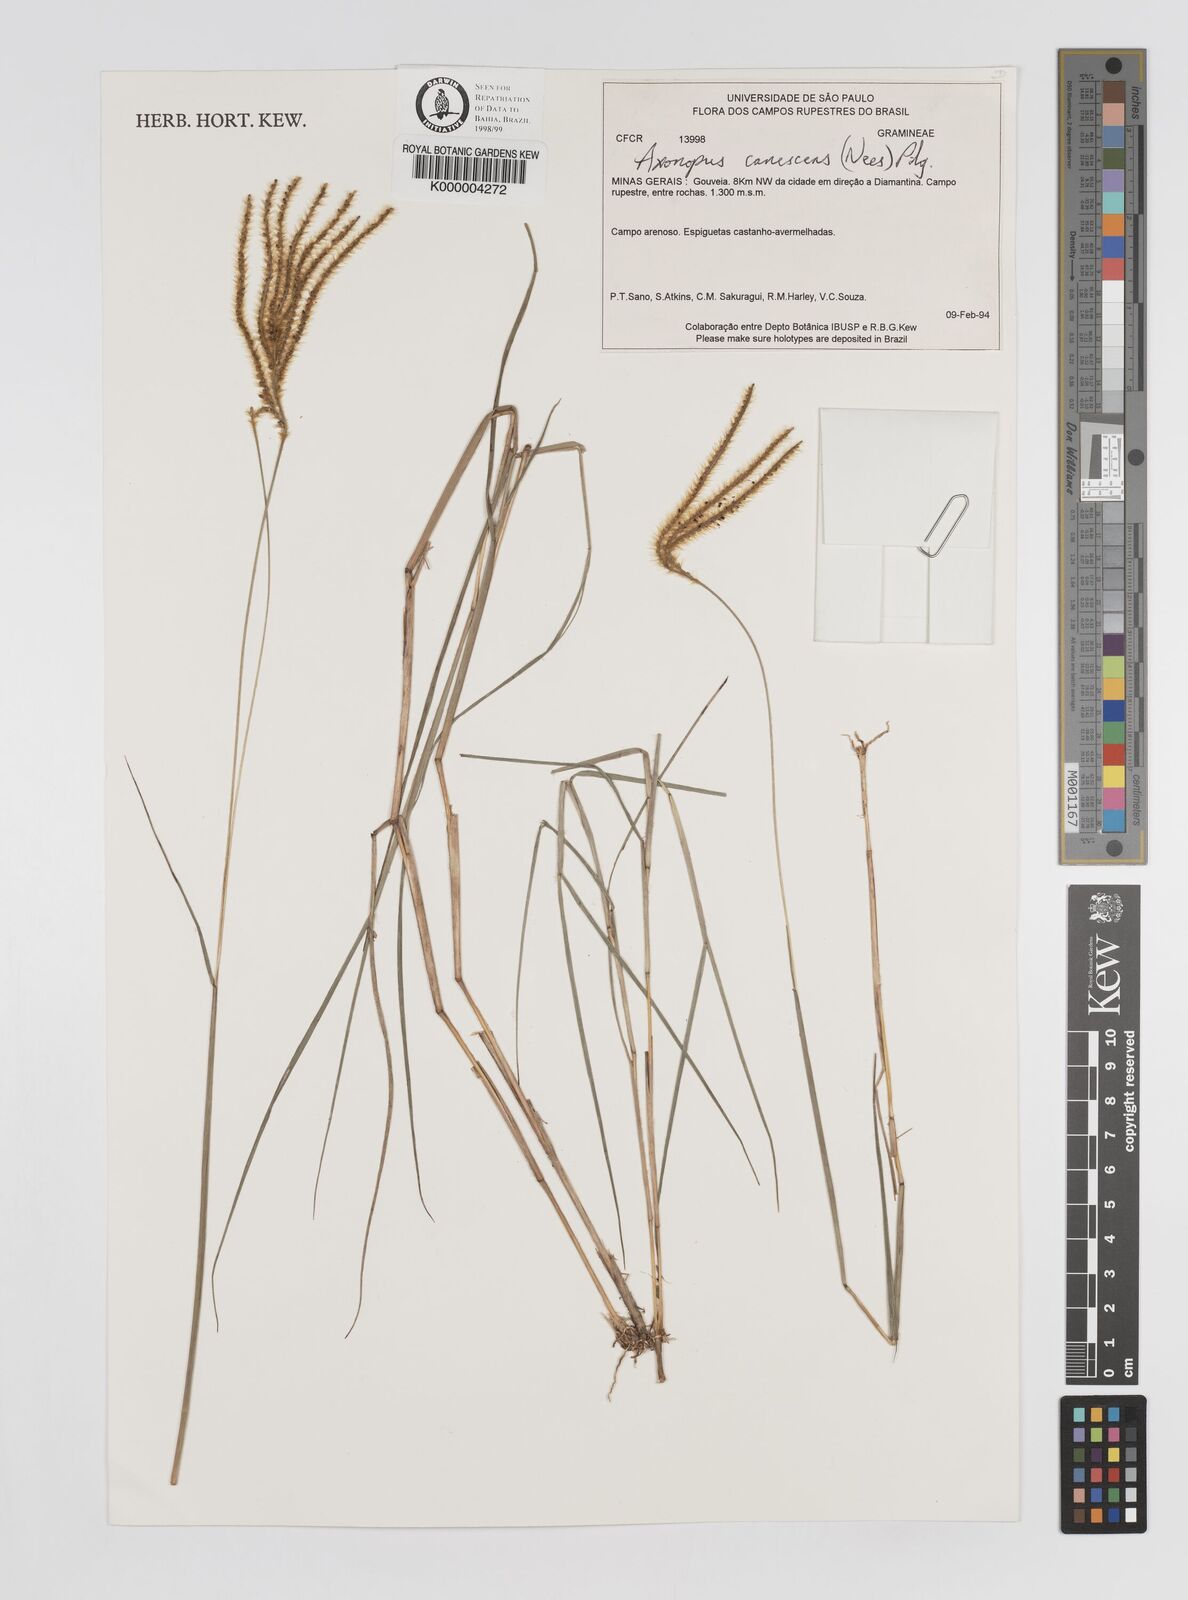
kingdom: Plantae
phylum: Tracheophyta
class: Liliopsida
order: Poales
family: Poaceae
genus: Axonopus
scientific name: Axonopus aureus
